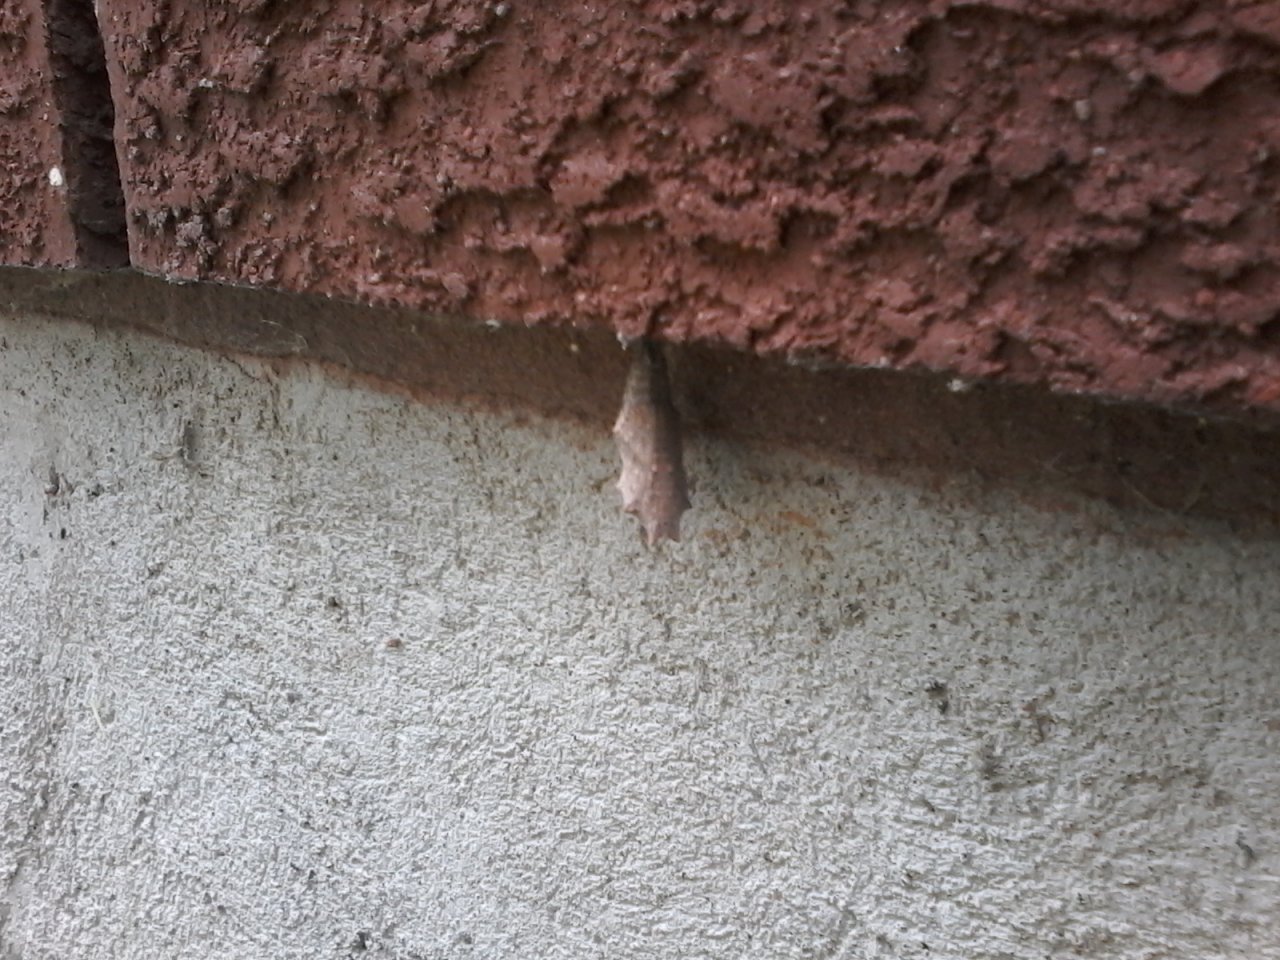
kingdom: Animalia
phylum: Arthropoda
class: Insecta
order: Lepidoptera
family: Nymphalidae
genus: Nymphalis
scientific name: Nymphalis antiopa
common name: Mourning Cloak
